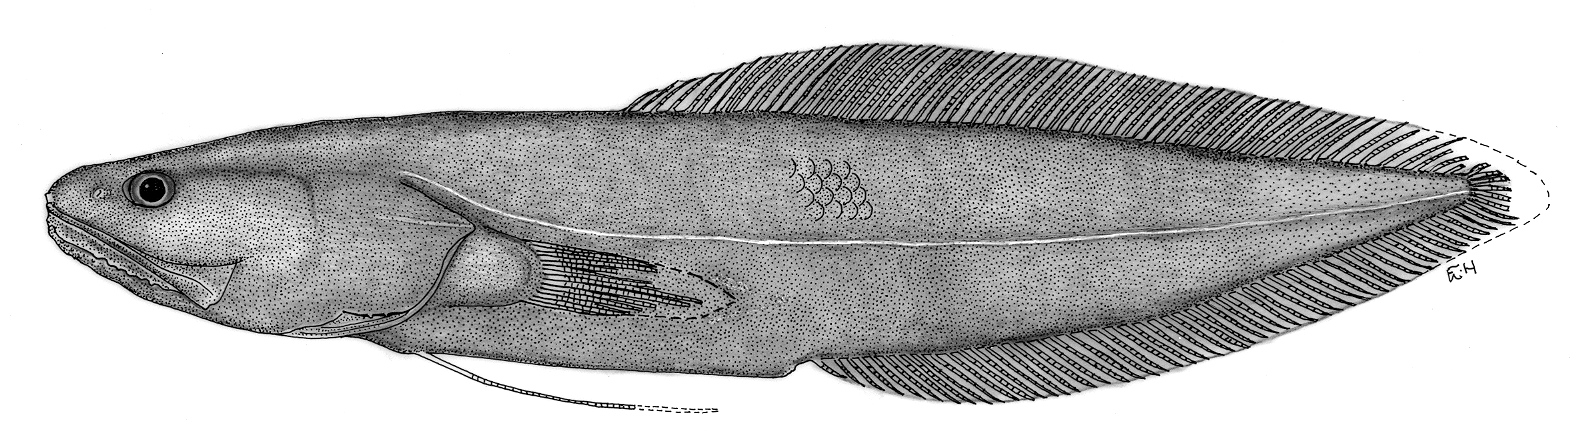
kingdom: Animalia
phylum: Chordata
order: Ophidiiformes
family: Bythitidae
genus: Microbrotula
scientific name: Microbrotula bentleyi
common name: Many-ray cusk
